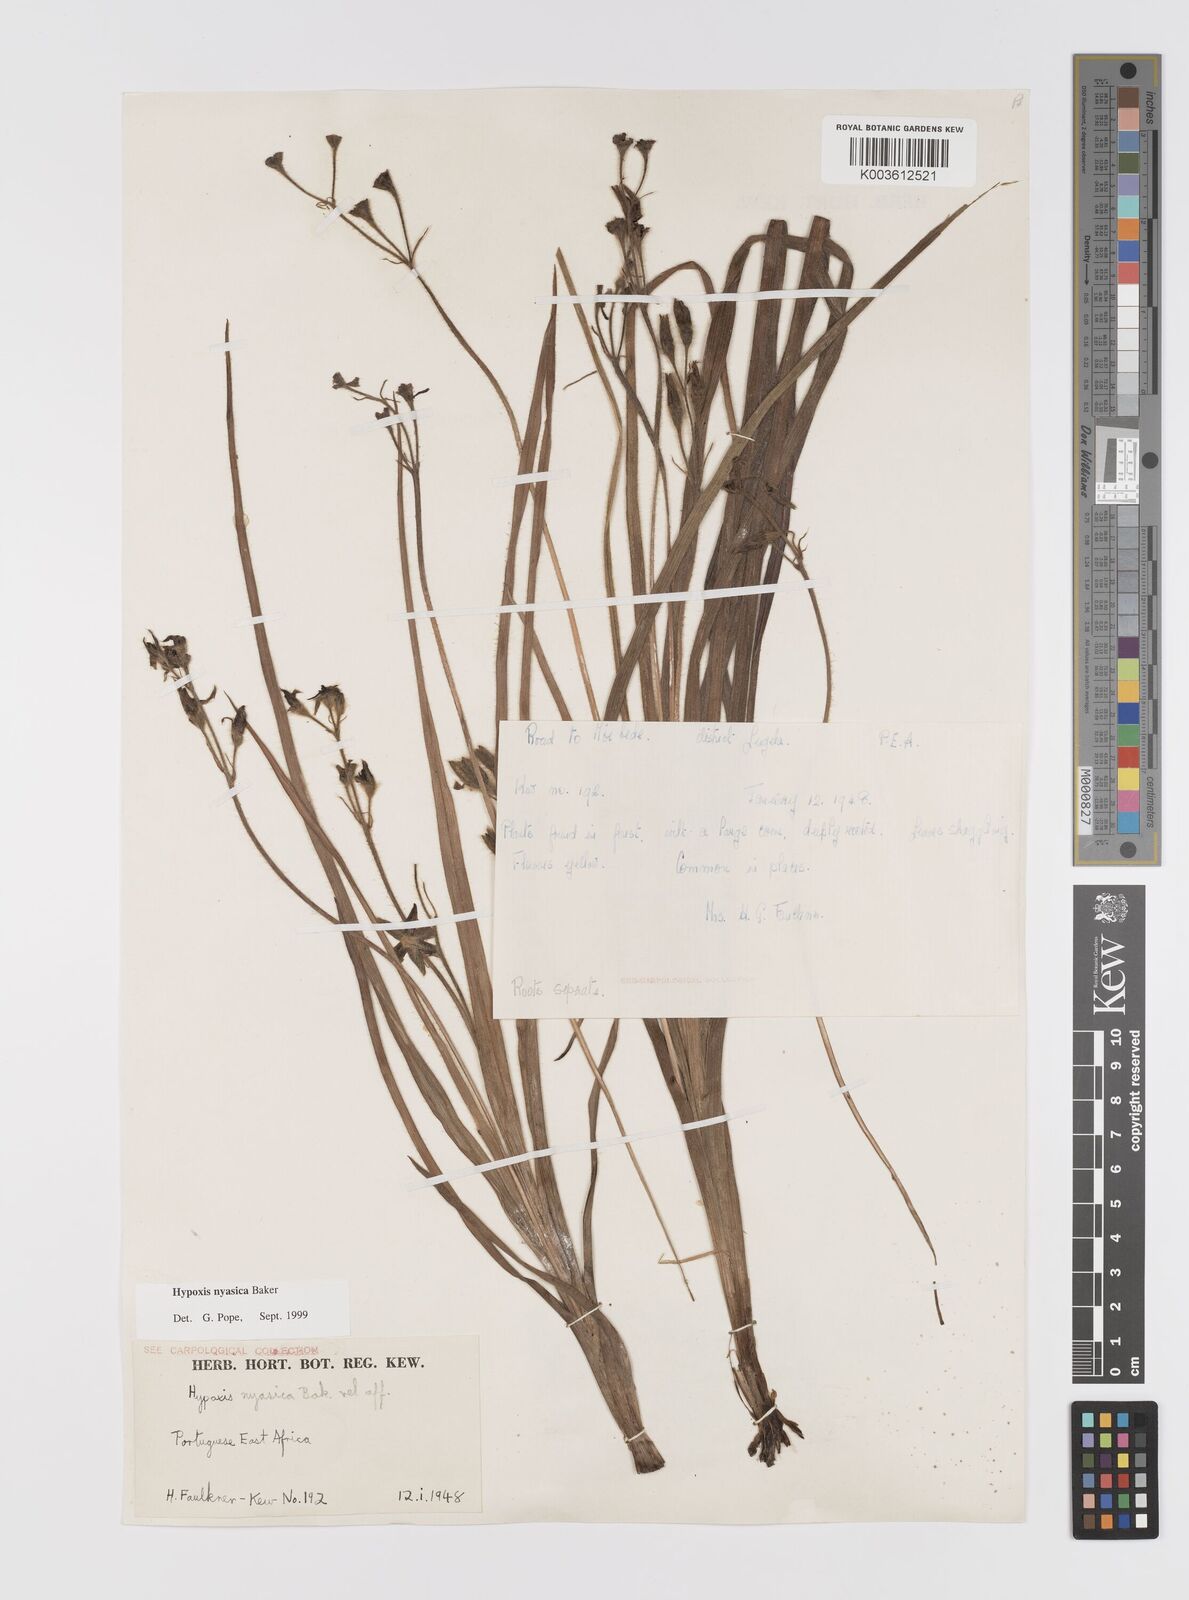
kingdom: Plantae
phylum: Tracheophyta
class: Liliopsida
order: Asparagales
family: Hypoxidaceae
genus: Hypoxis
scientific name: Hypoxis nyasica
